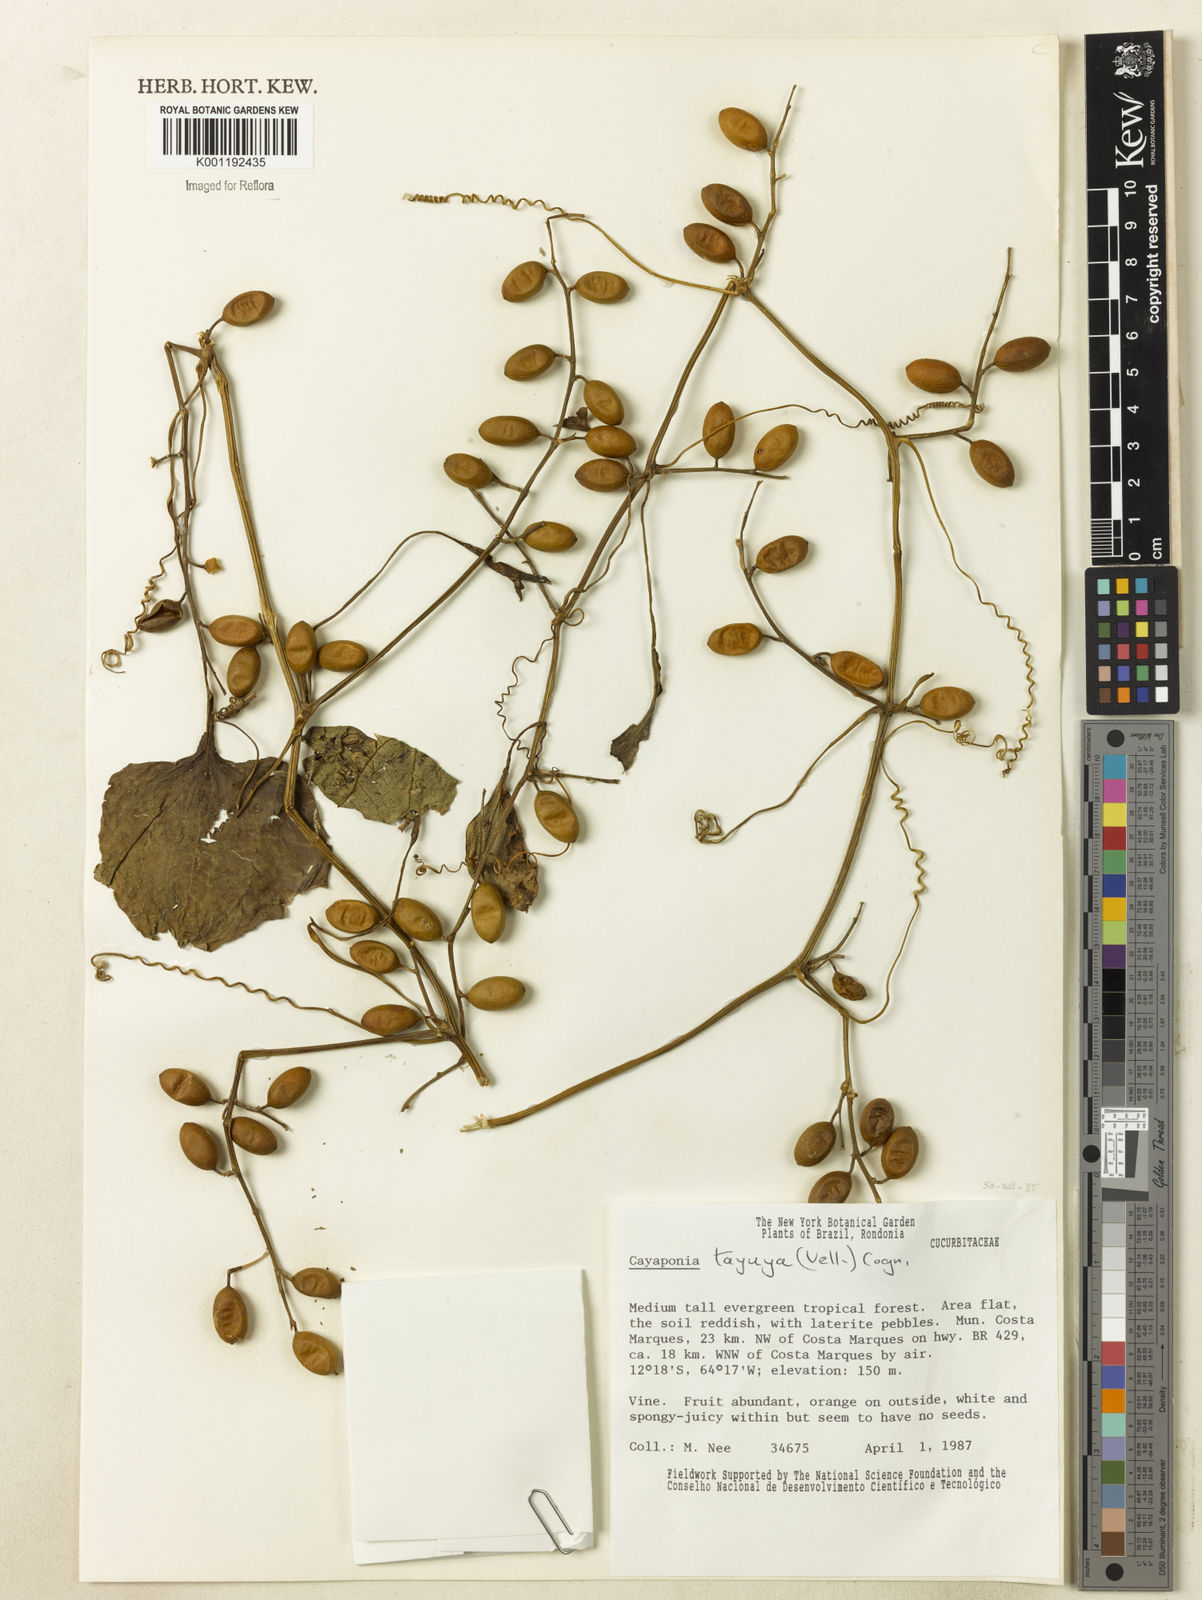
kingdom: Plantae
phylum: Tracheophyta
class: Magnoliopsida
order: Cucurbitales
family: Cucurbitaceae
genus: Cayaponia
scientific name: Cayaponia tayuya
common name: Tayuya
